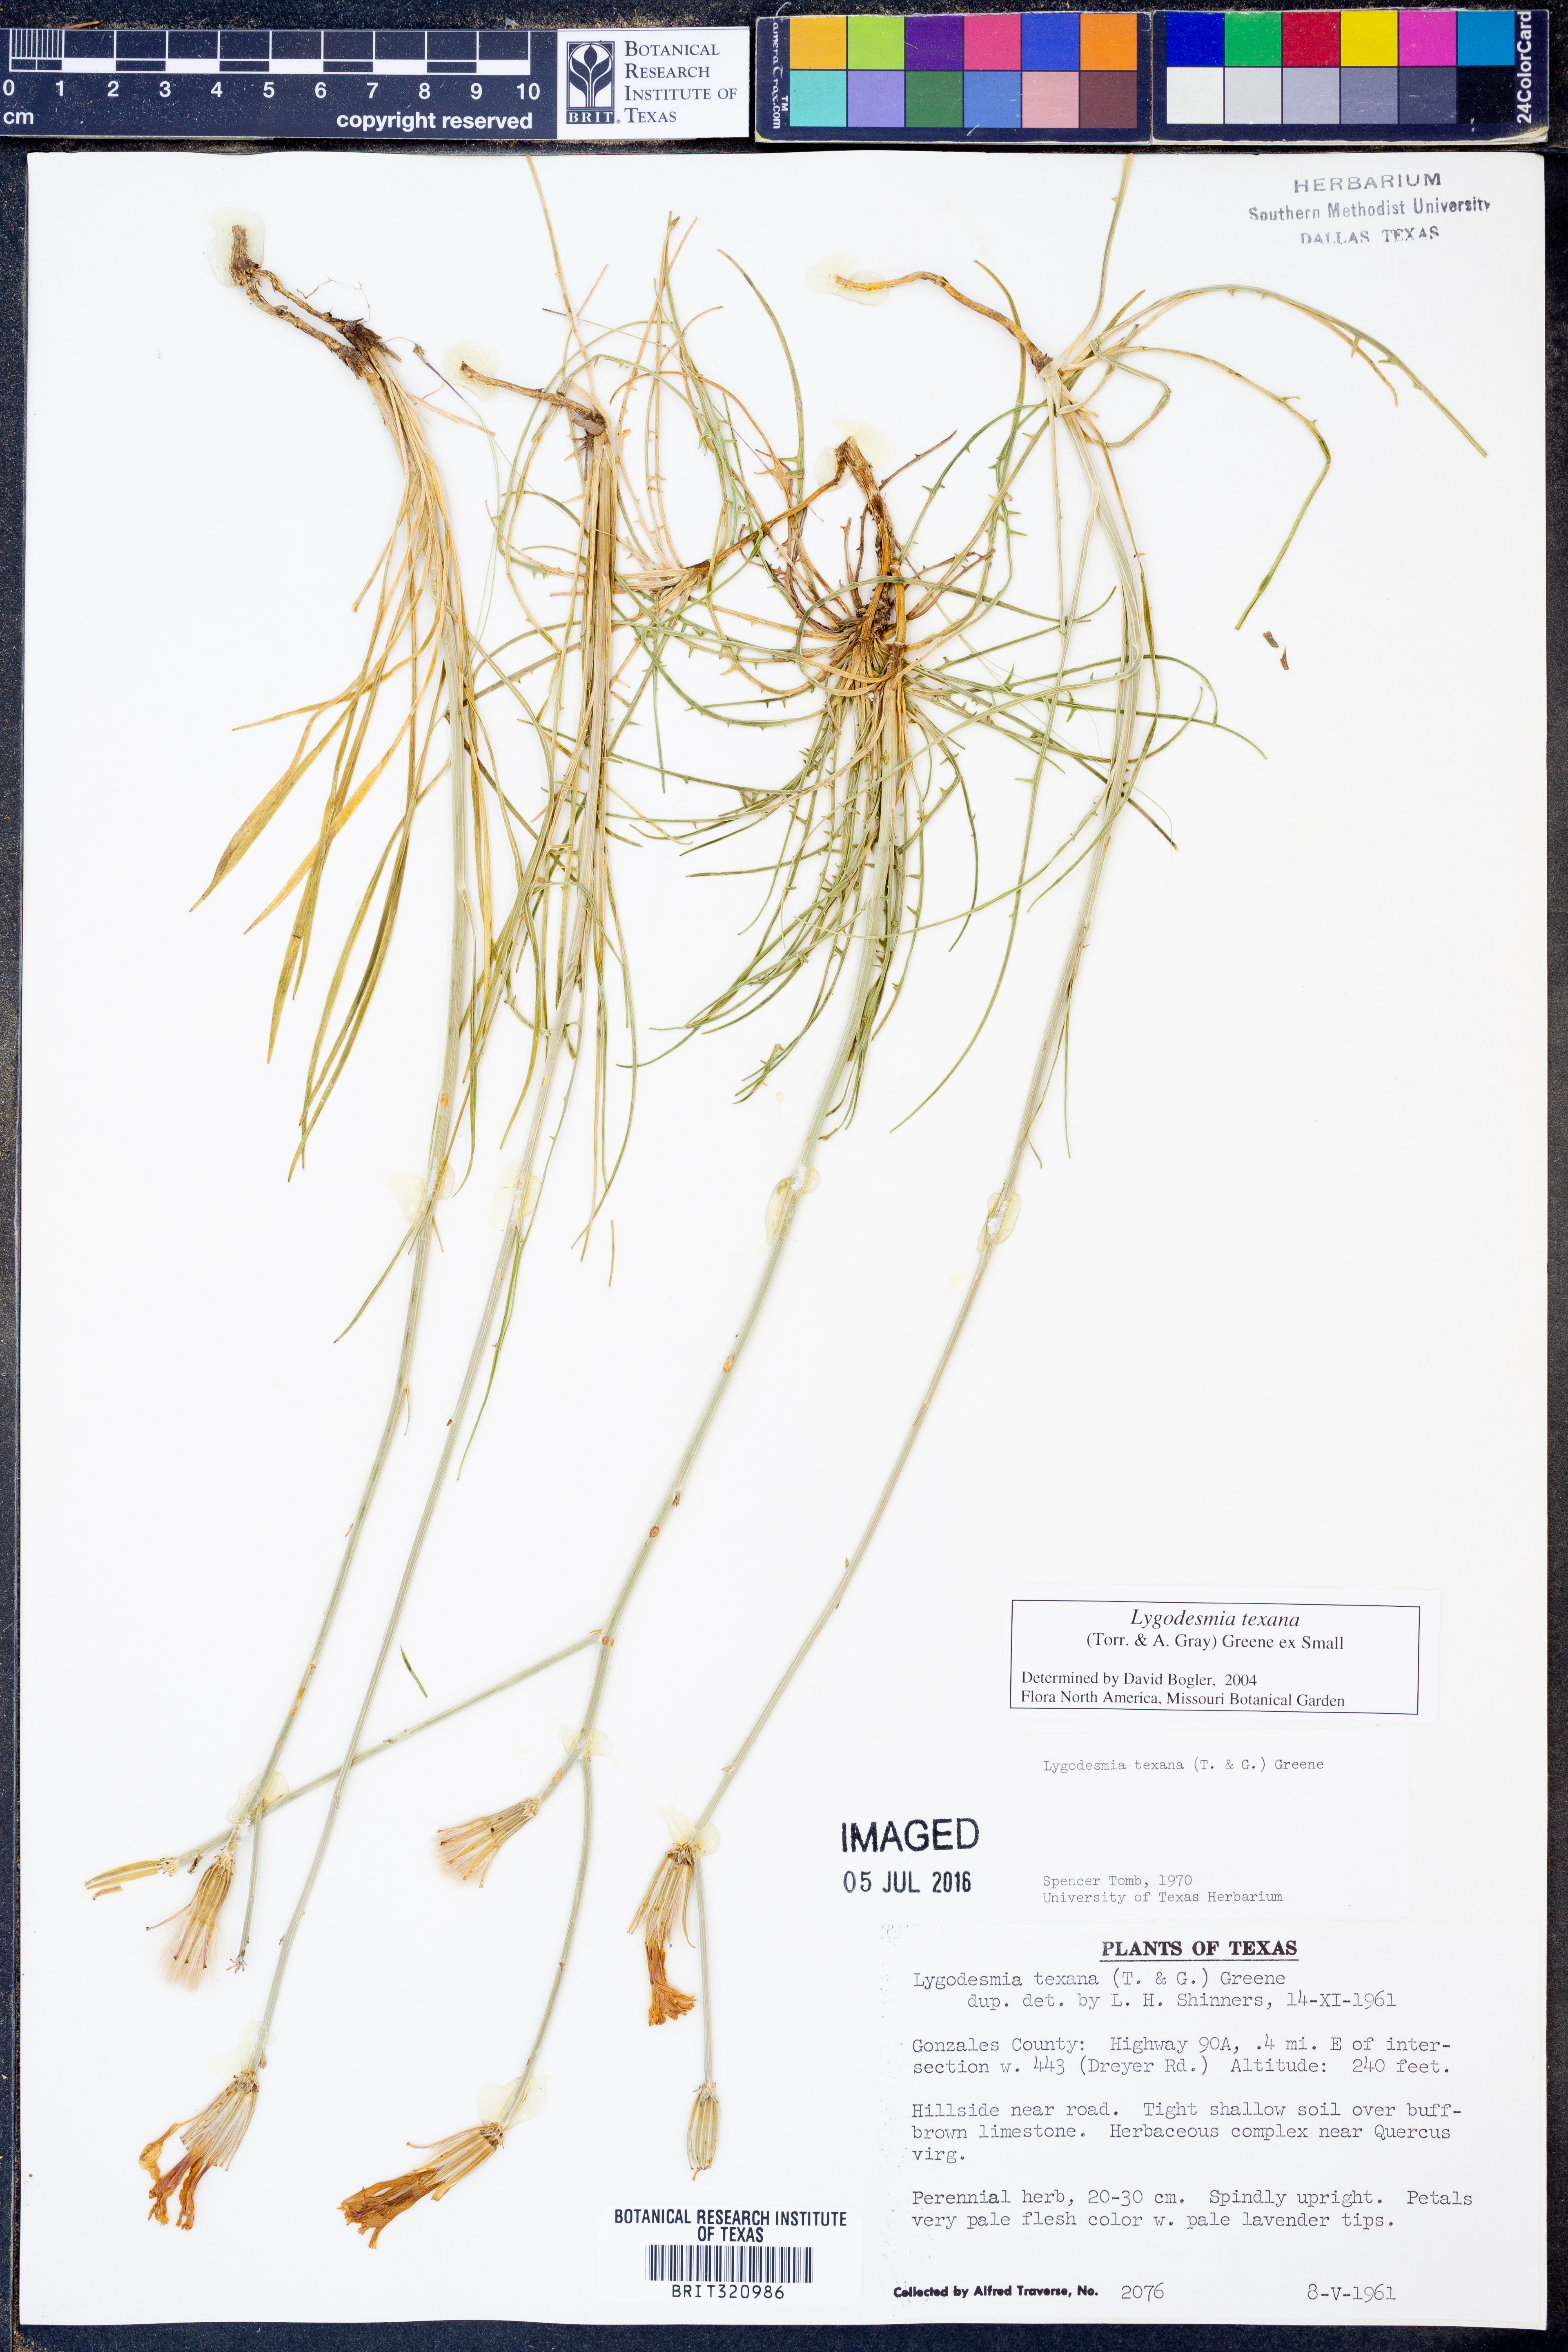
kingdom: Plantae
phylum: Tracheophyta
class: Magnoliopsida
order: Asterales
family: Asteraceae
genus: Lygodesmia
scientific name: Lygodesmia texana
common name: Texas skeleton-plant
